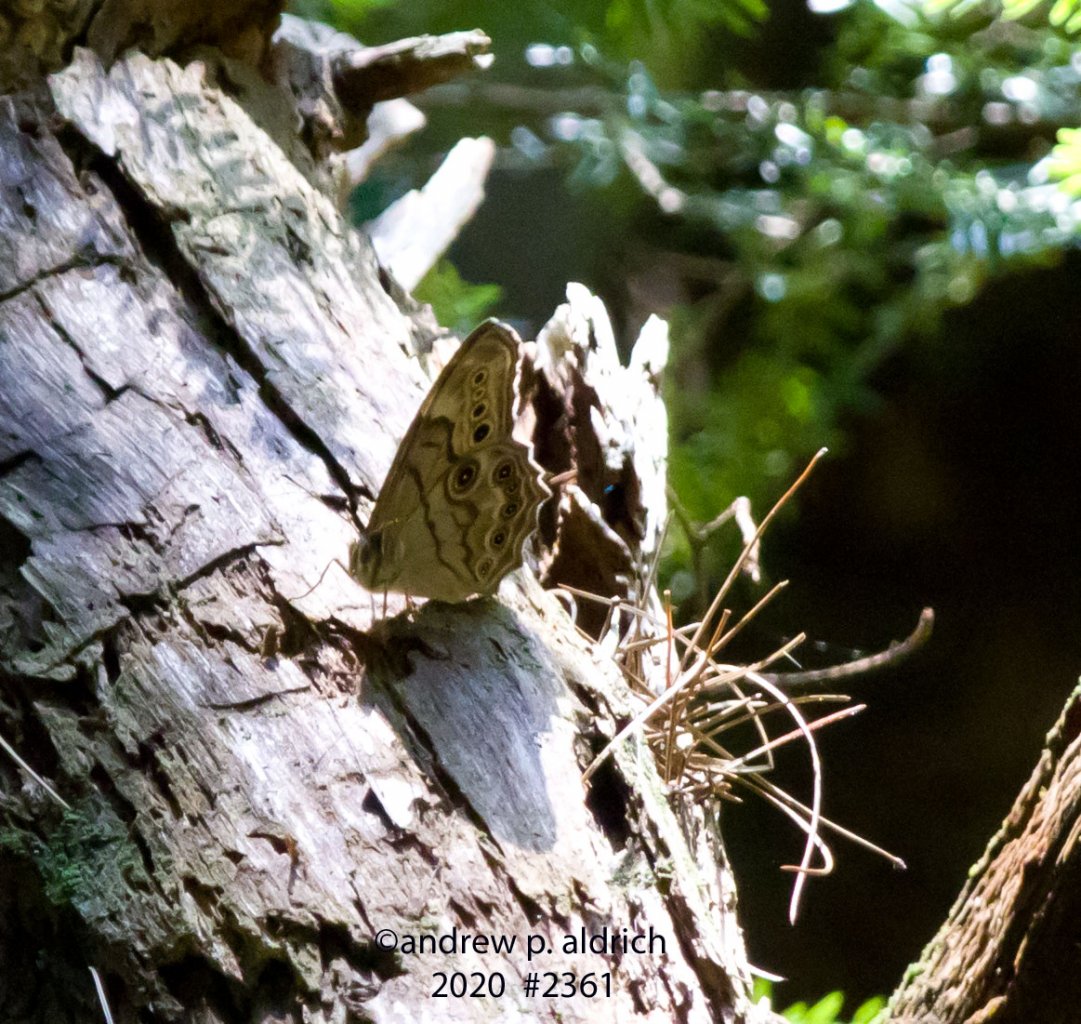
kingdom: Animalia
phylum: Arthropoda
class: Insecta
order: Lepidoptera
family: Nymphalidae
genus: Lethe
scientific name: Lethe anthedon
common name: Northern Pearly-Eye
